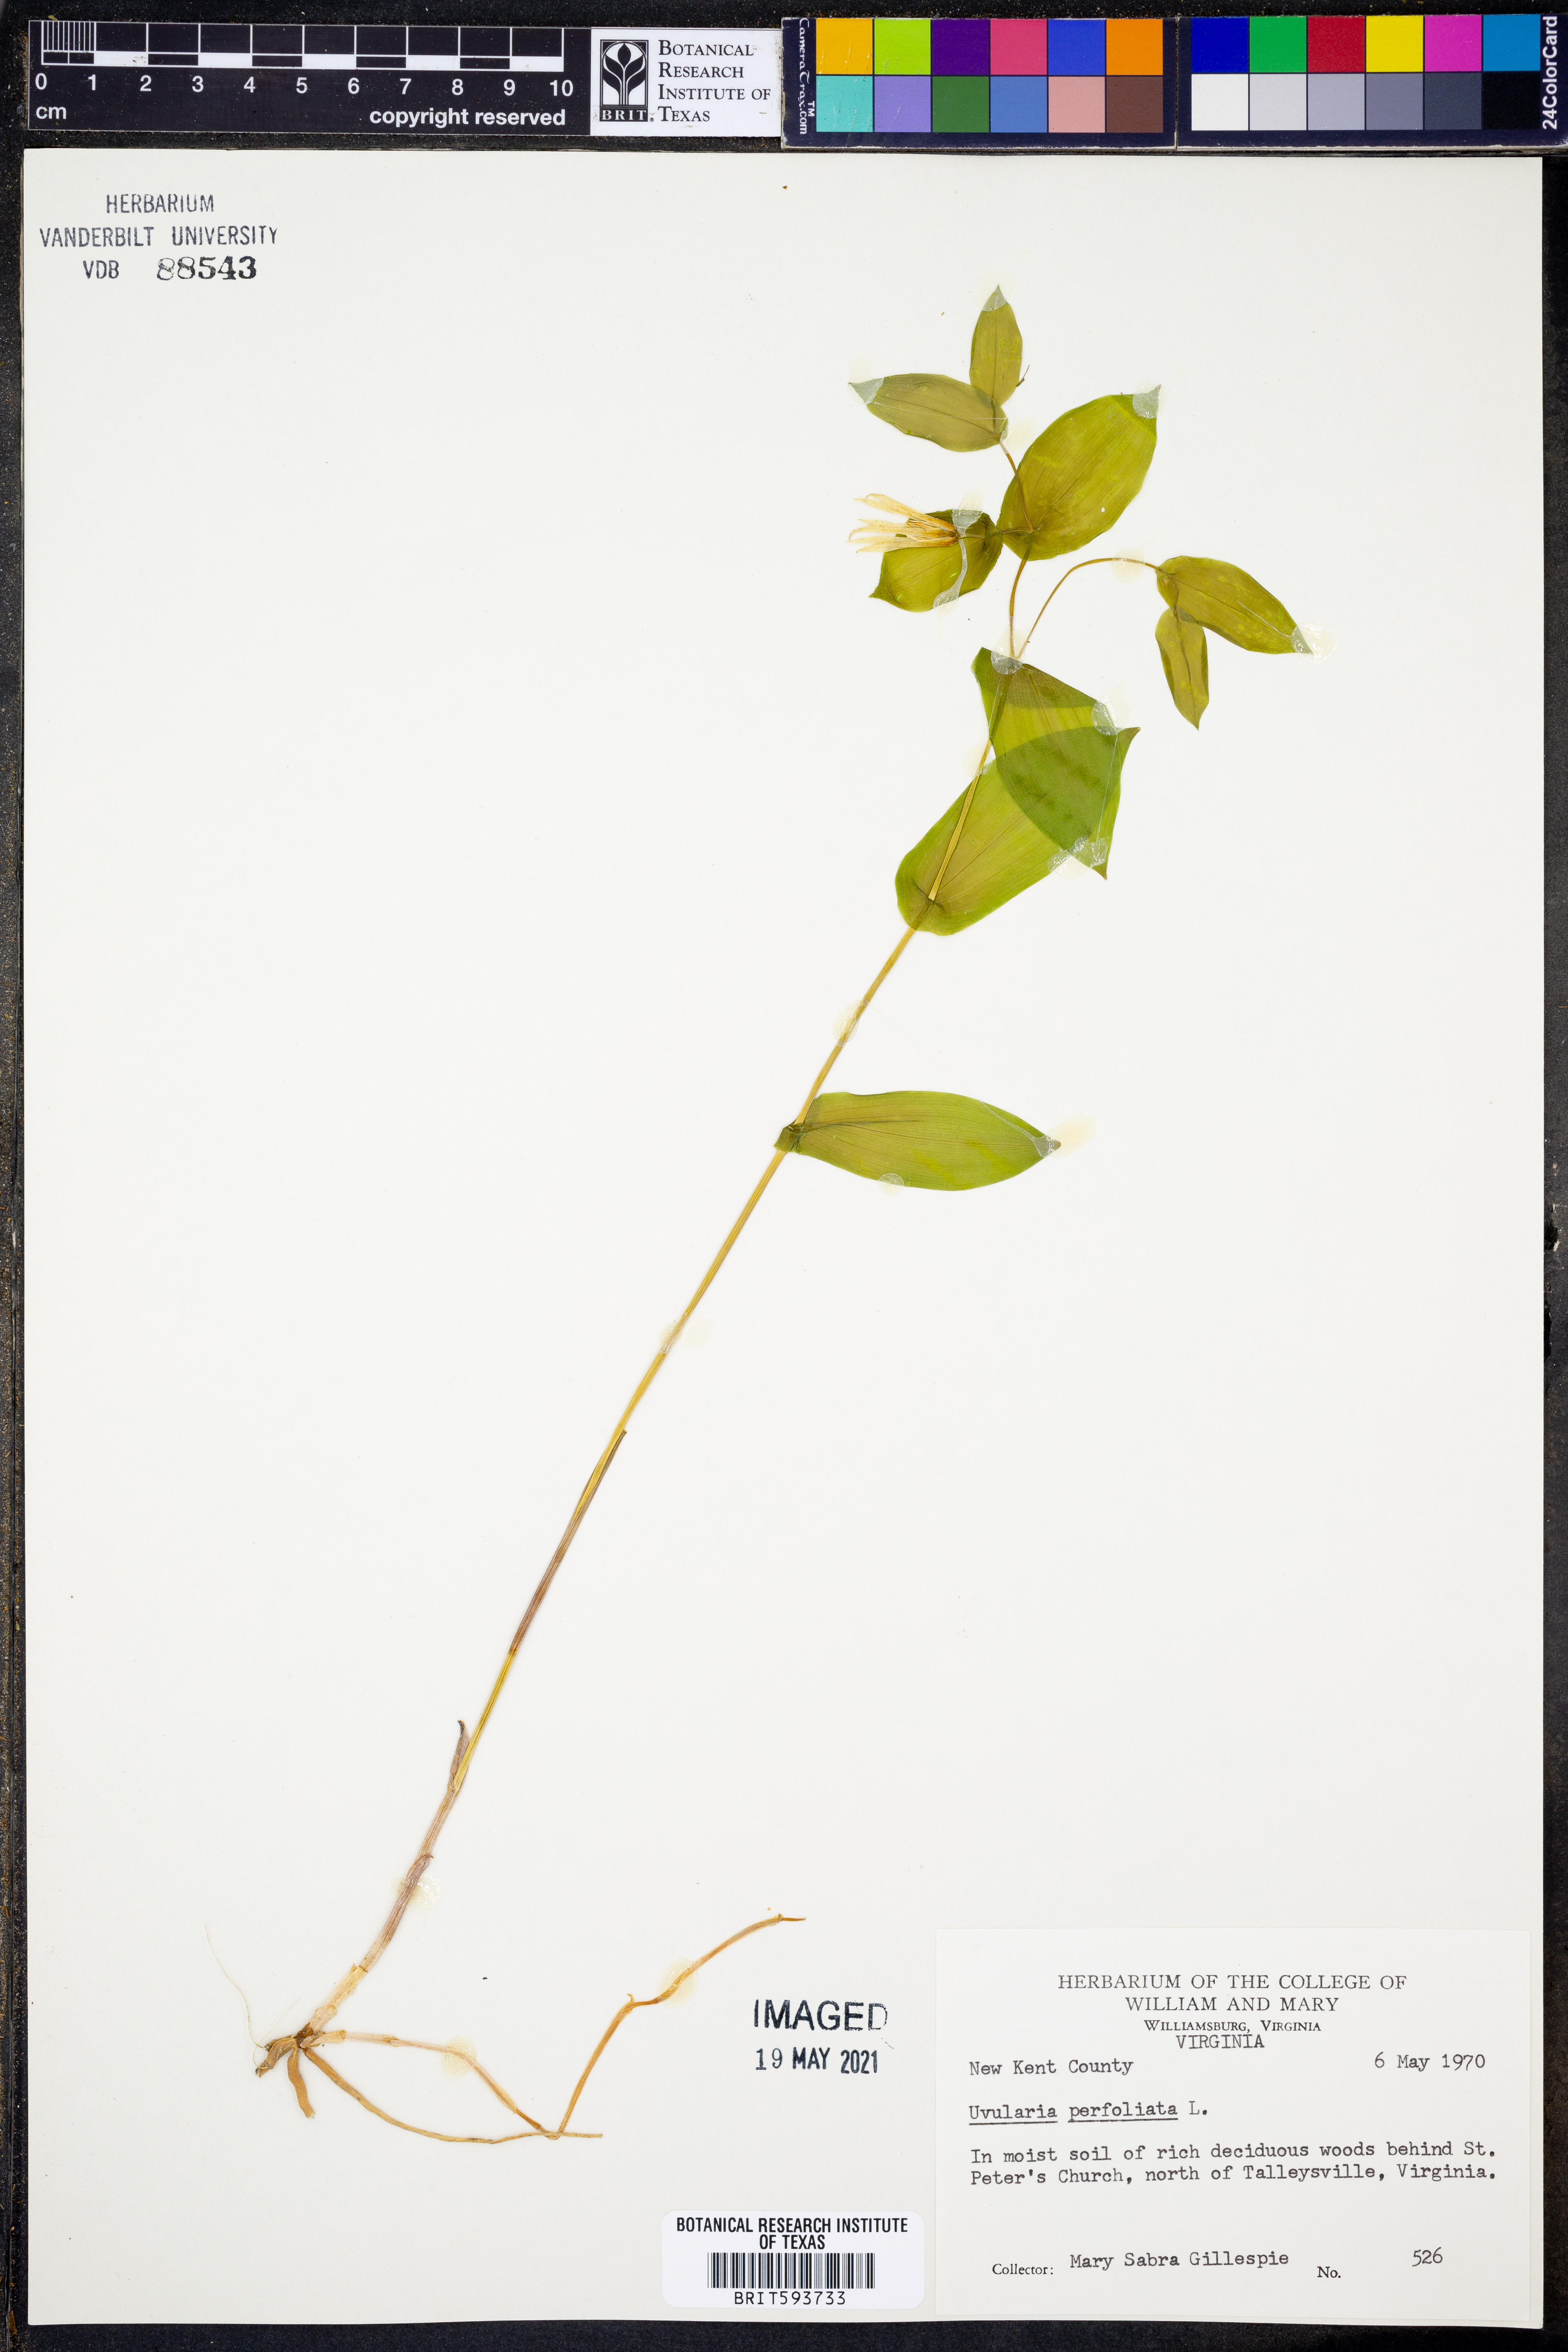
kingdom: Plantae
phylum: Tracheophyta
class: Liliopsida
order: Liliales
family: Colchicaceae
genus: Uvularia
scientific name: Uvularia perfoliata
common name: Perfoliate bellwort
